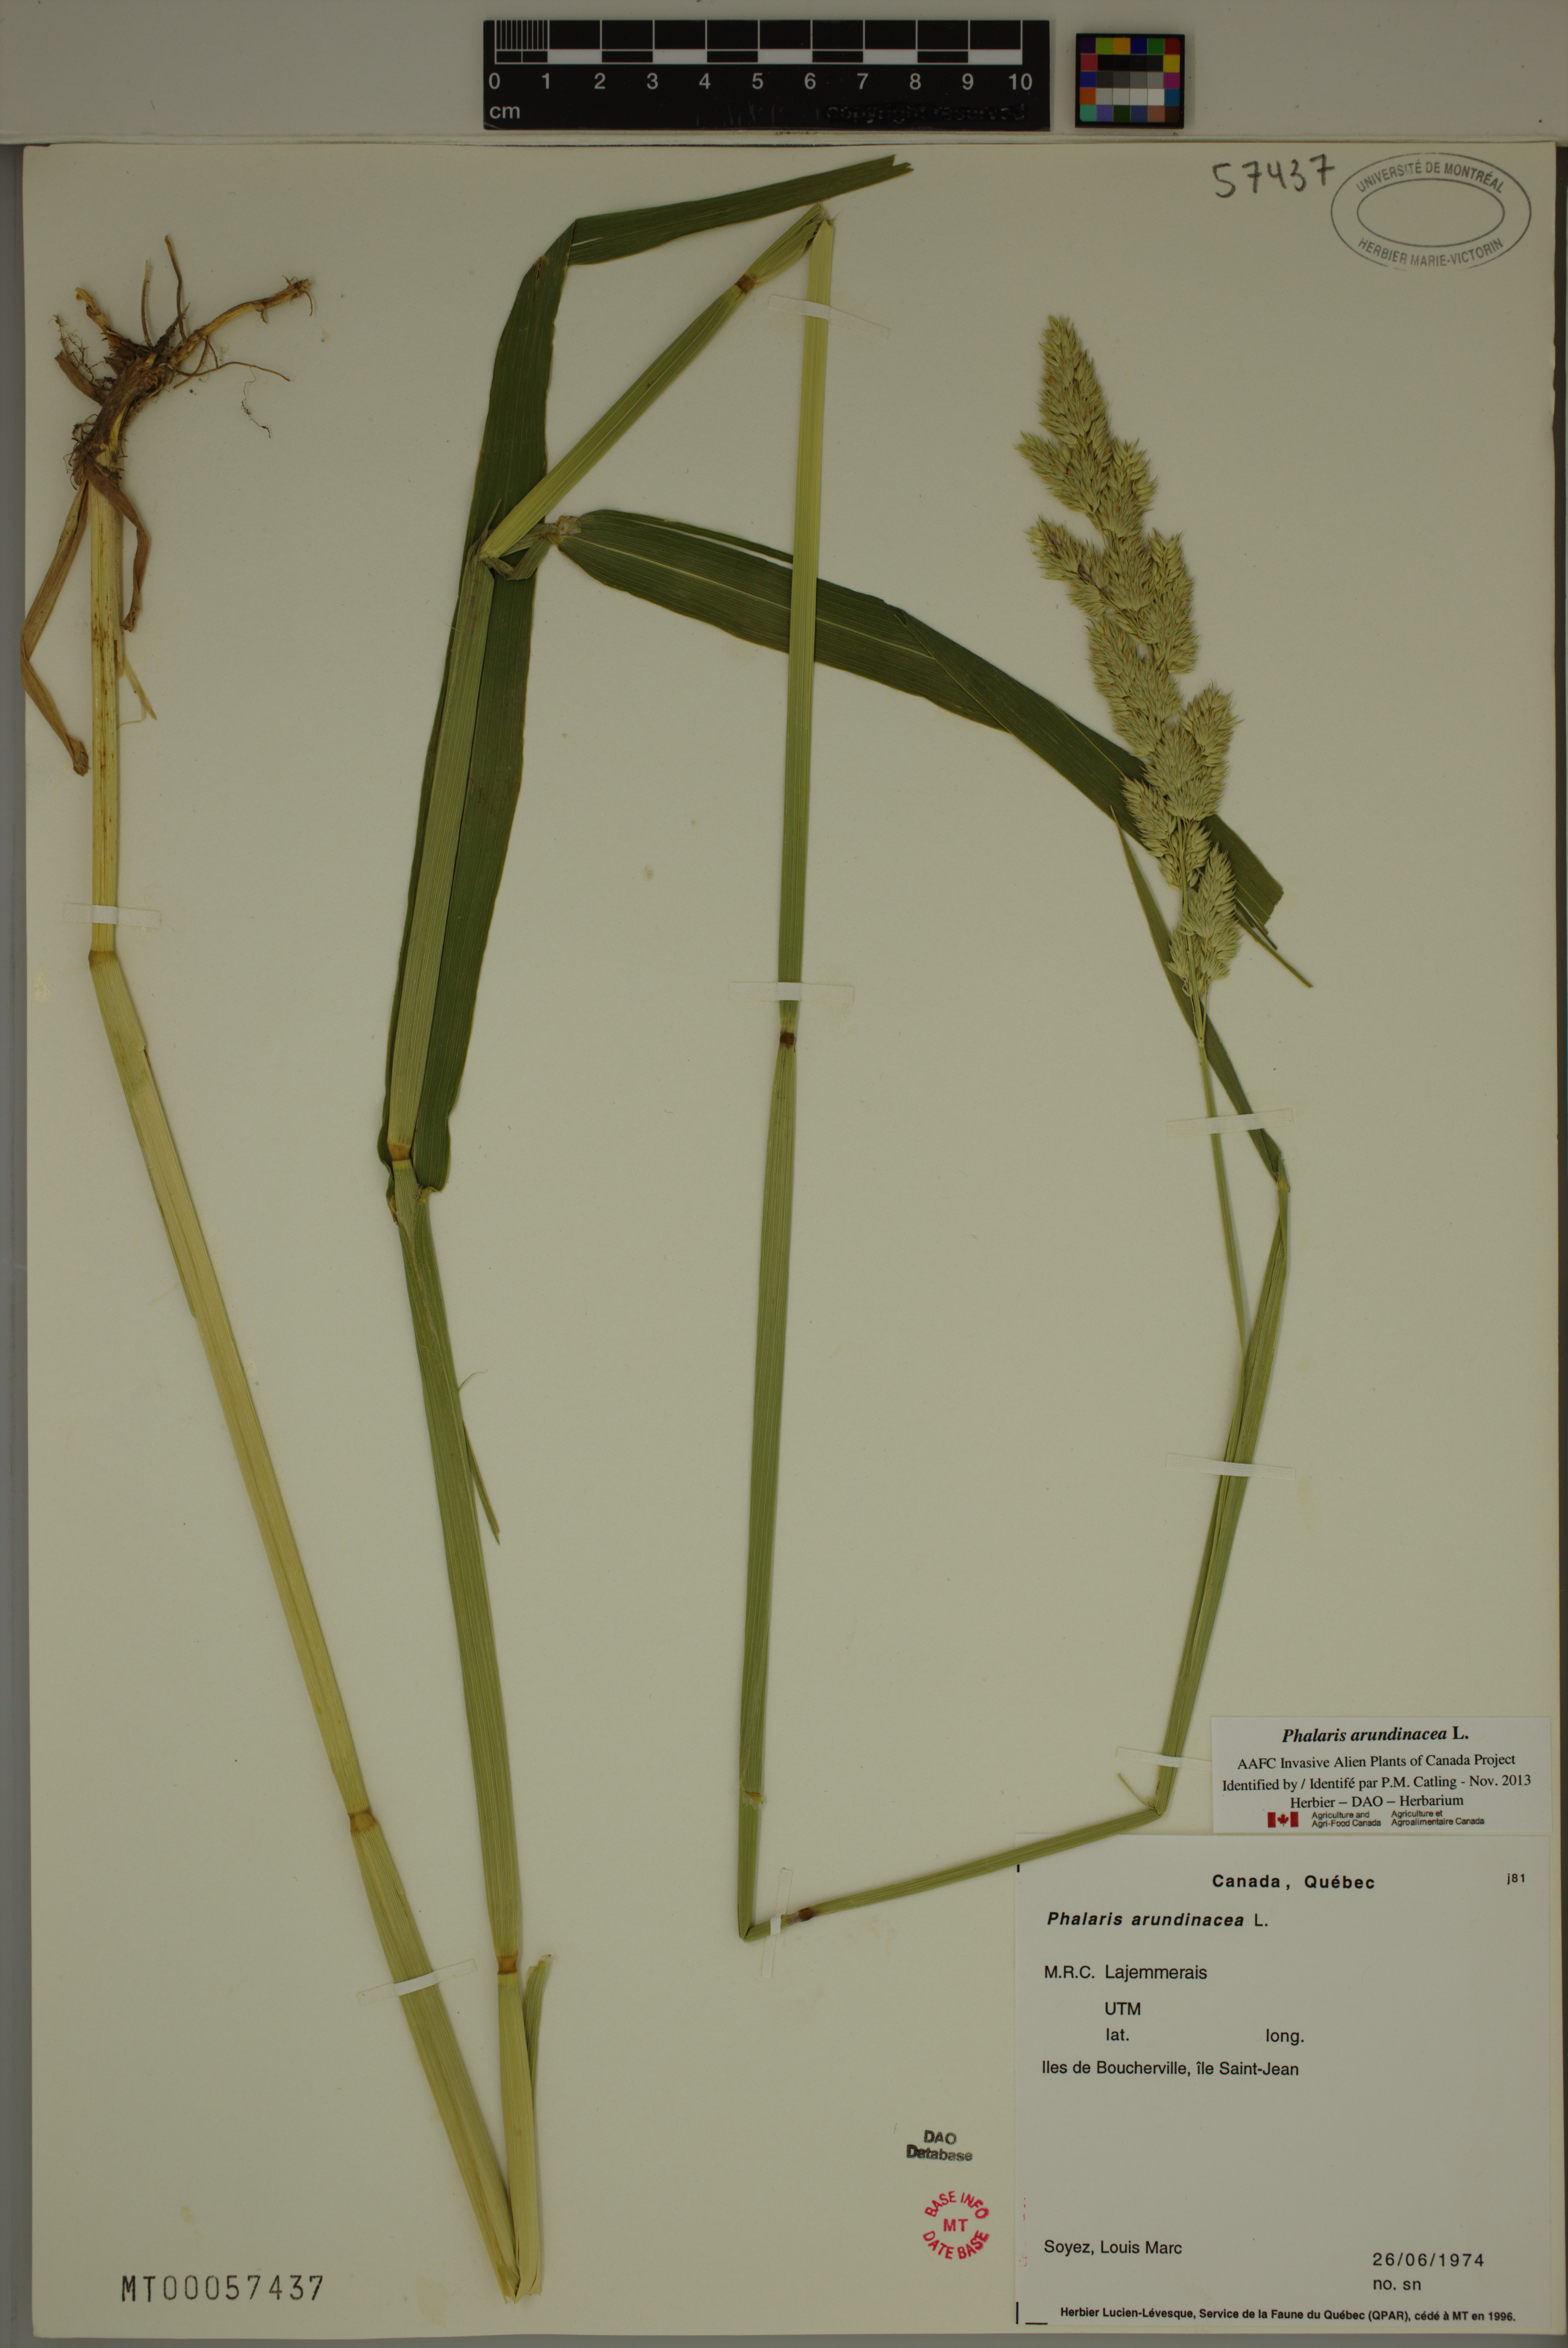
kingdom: Plantae
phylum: Tracheophyta
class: Liliopsida
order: Poales
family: Poaceae
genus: Phalaris
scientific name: Phalaris arundinacea
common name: Reed canary-grass
